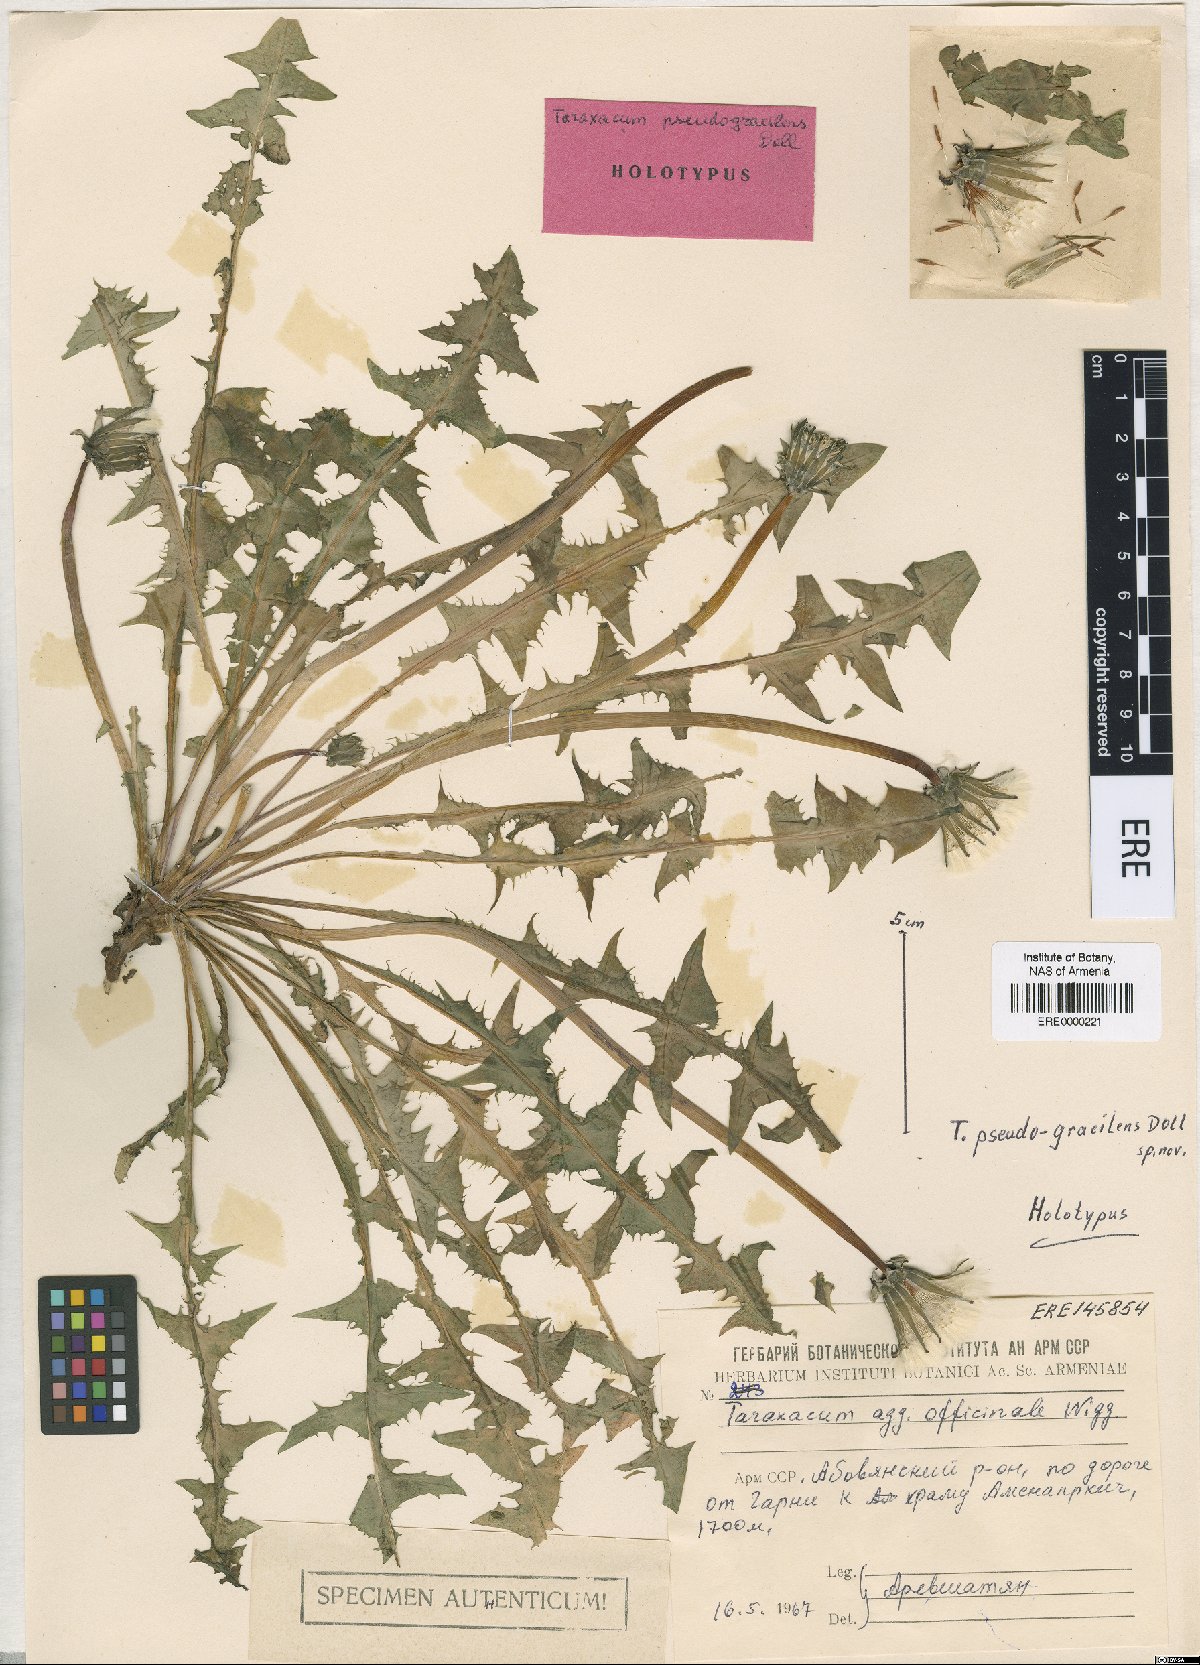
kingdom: Plantae
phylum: Tracheophyta
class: Magnoliopsida
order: Asterales
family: Asteraceae
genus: Taraxacum
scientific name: Taraxacum pseudogracilens
